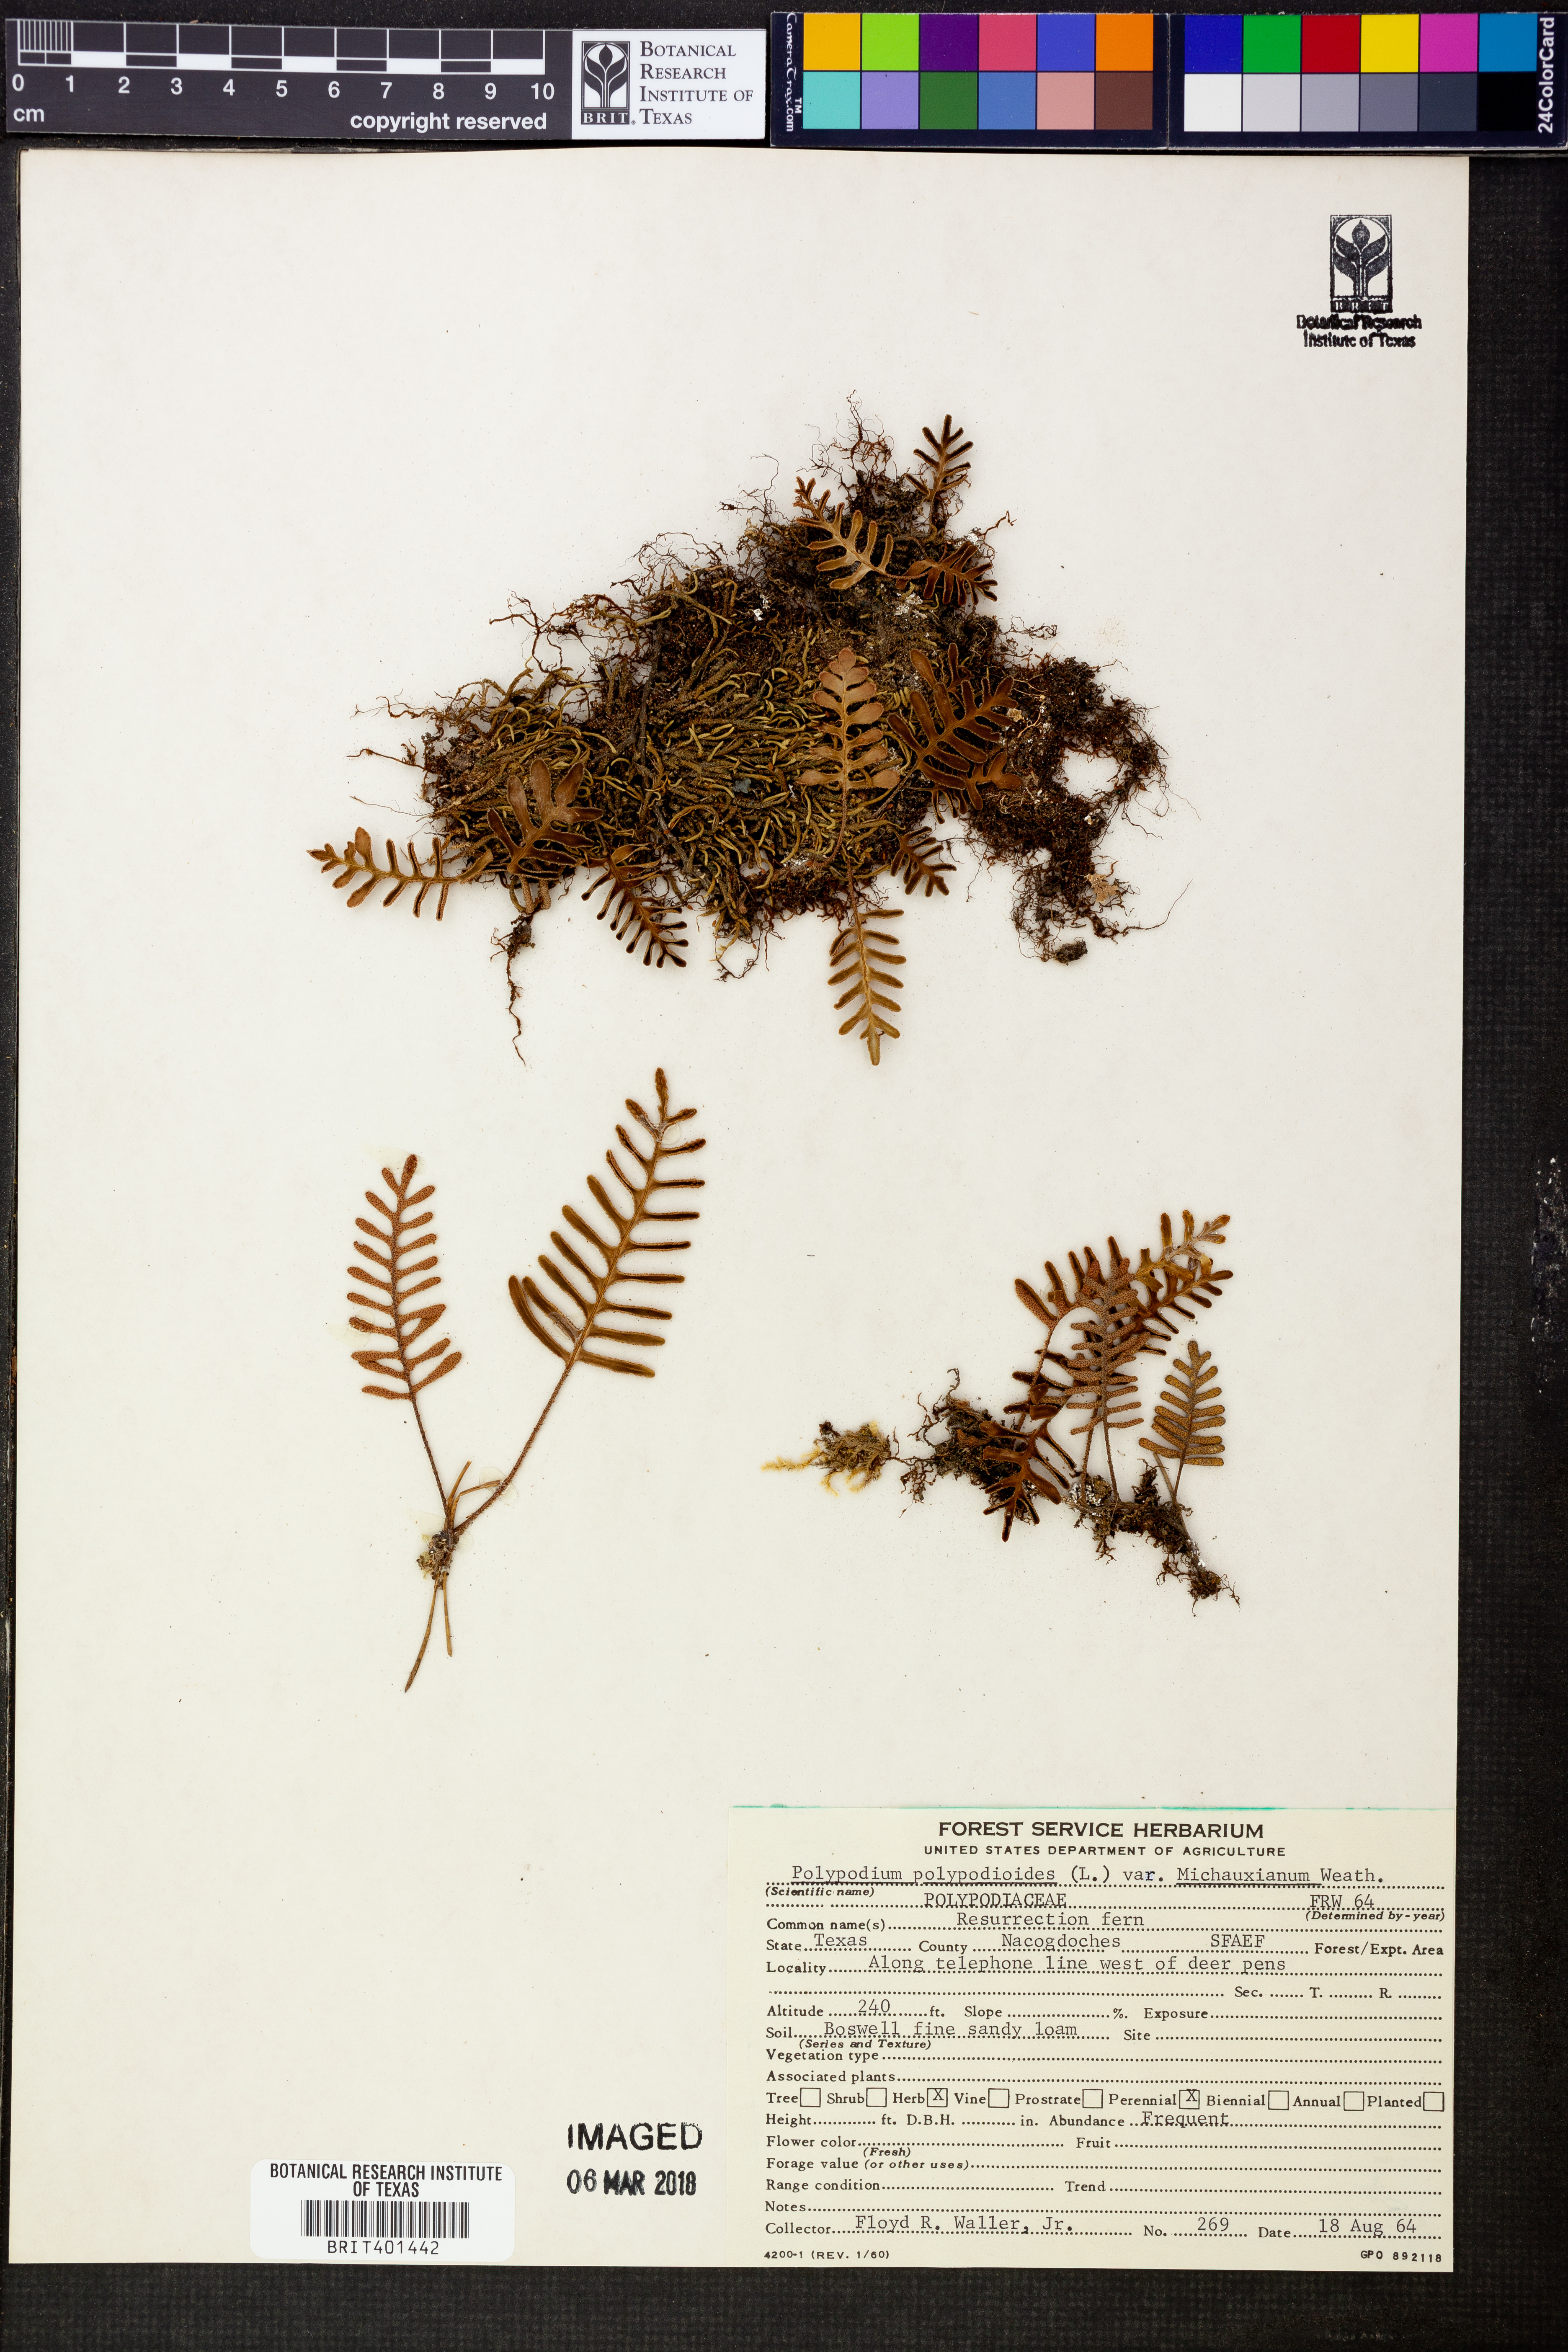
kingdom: Plantae
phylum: Tracheophyta
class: Polypodiopsida
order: Polypodiales
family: Polypodiaceae
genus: Pleopeltis
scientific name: Pleopeltis michauxiana
